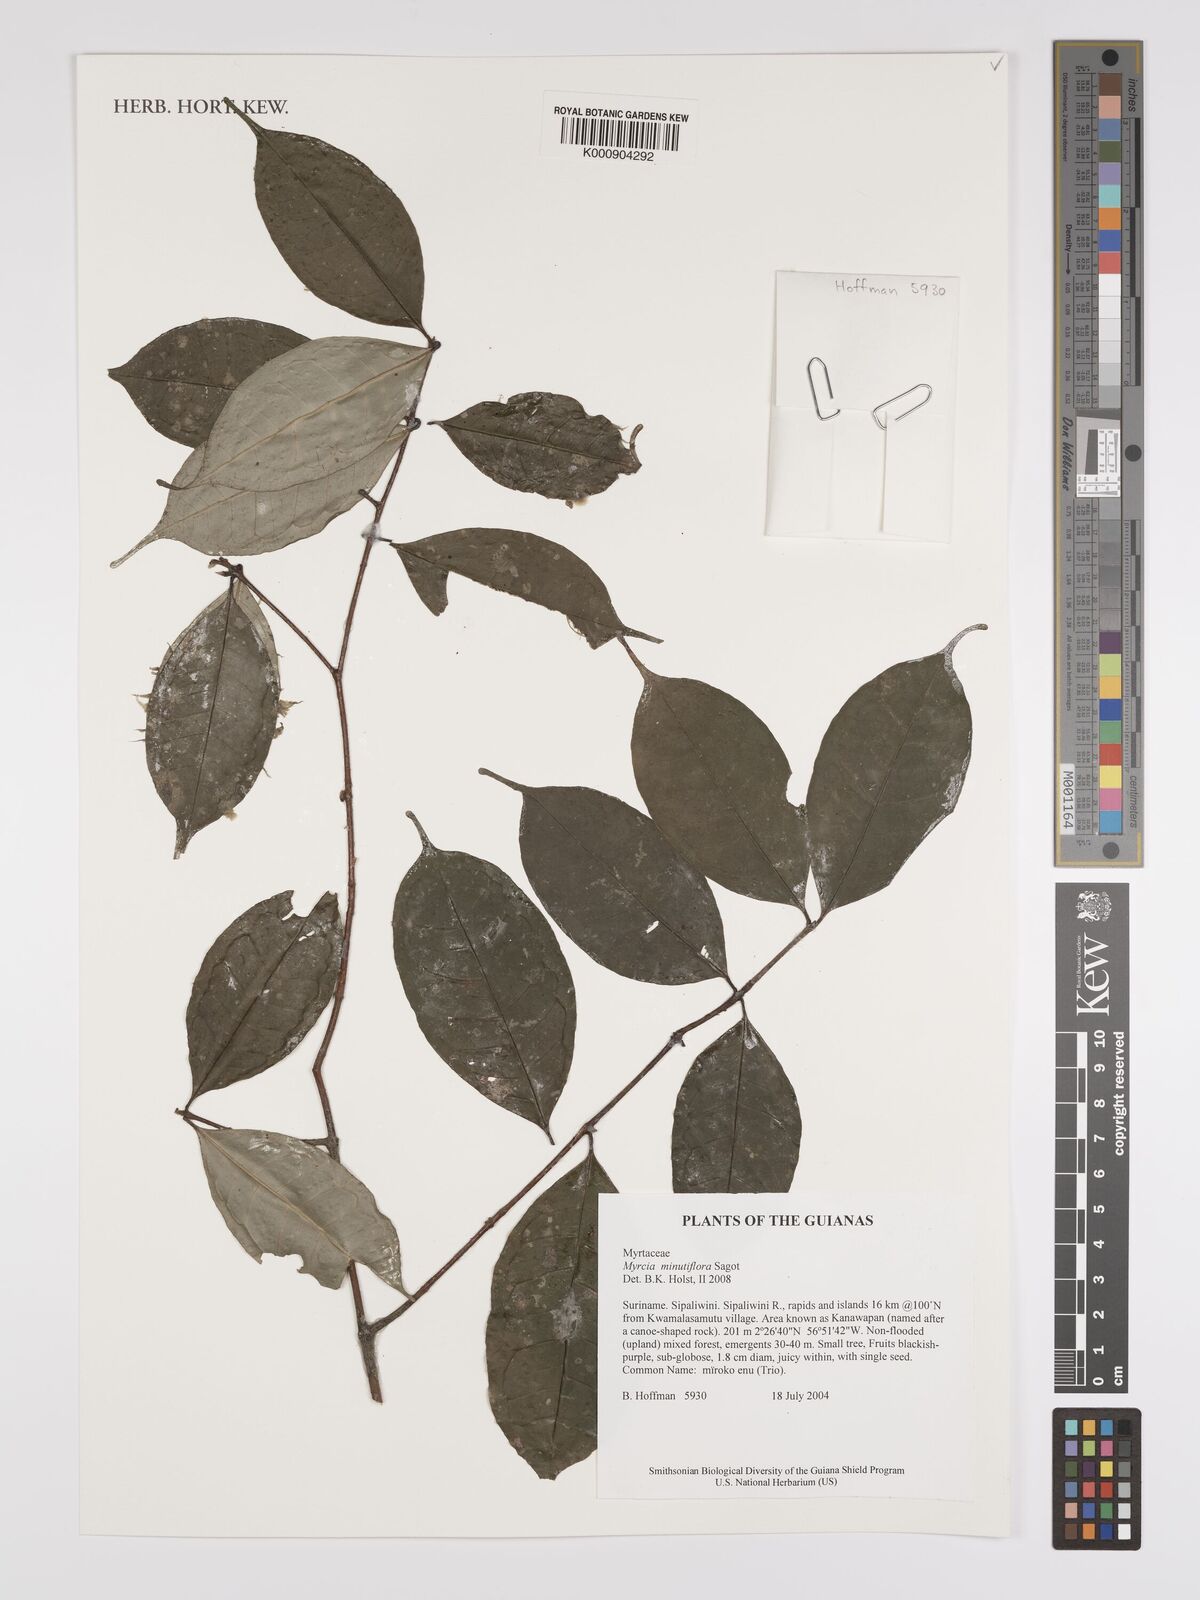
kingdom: Plantae
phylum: Tracheophyta
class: Magnoliopsida
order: Myrtales
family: Myrtaceae
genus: Myrcia
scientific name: Myrcia minutiflora
